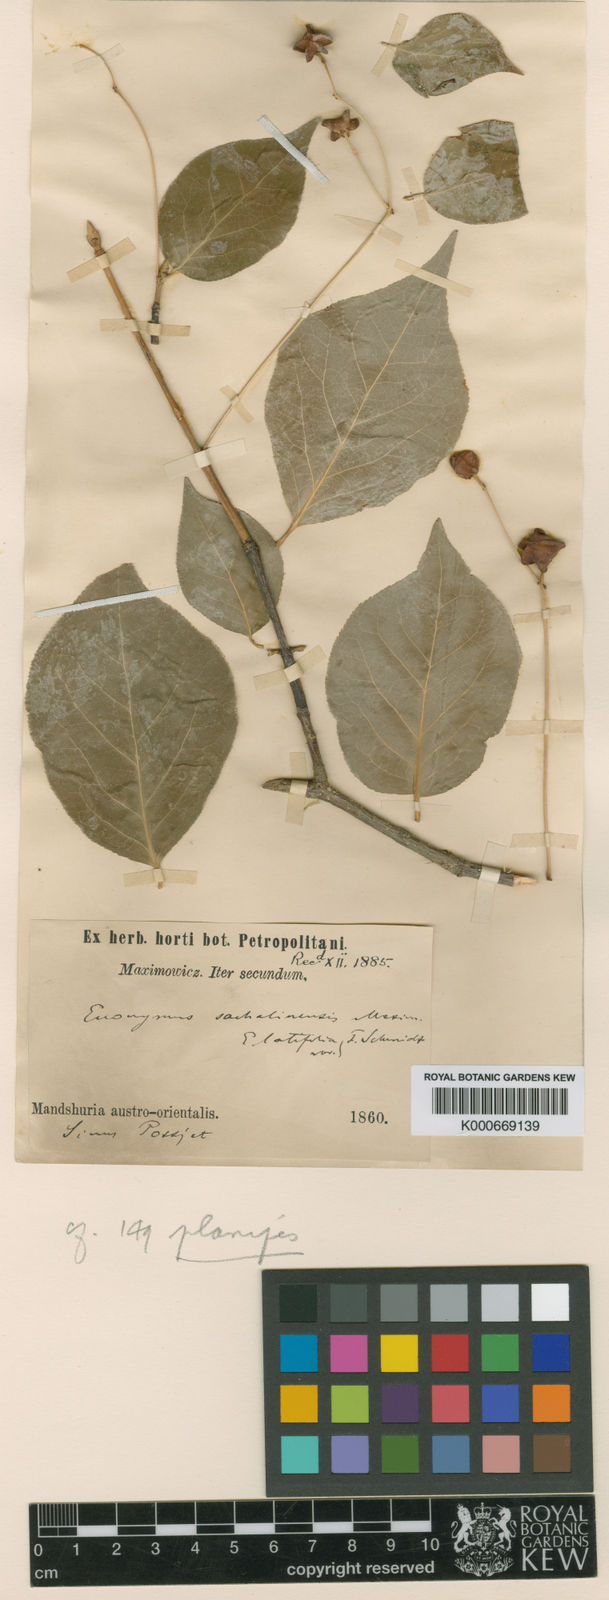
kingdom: Plantae
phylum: Tracheophyta
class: Magnoliopsida
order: Celastrales
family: Celastraceae
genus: Euonymus
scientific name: Euonymus sachalinensis
